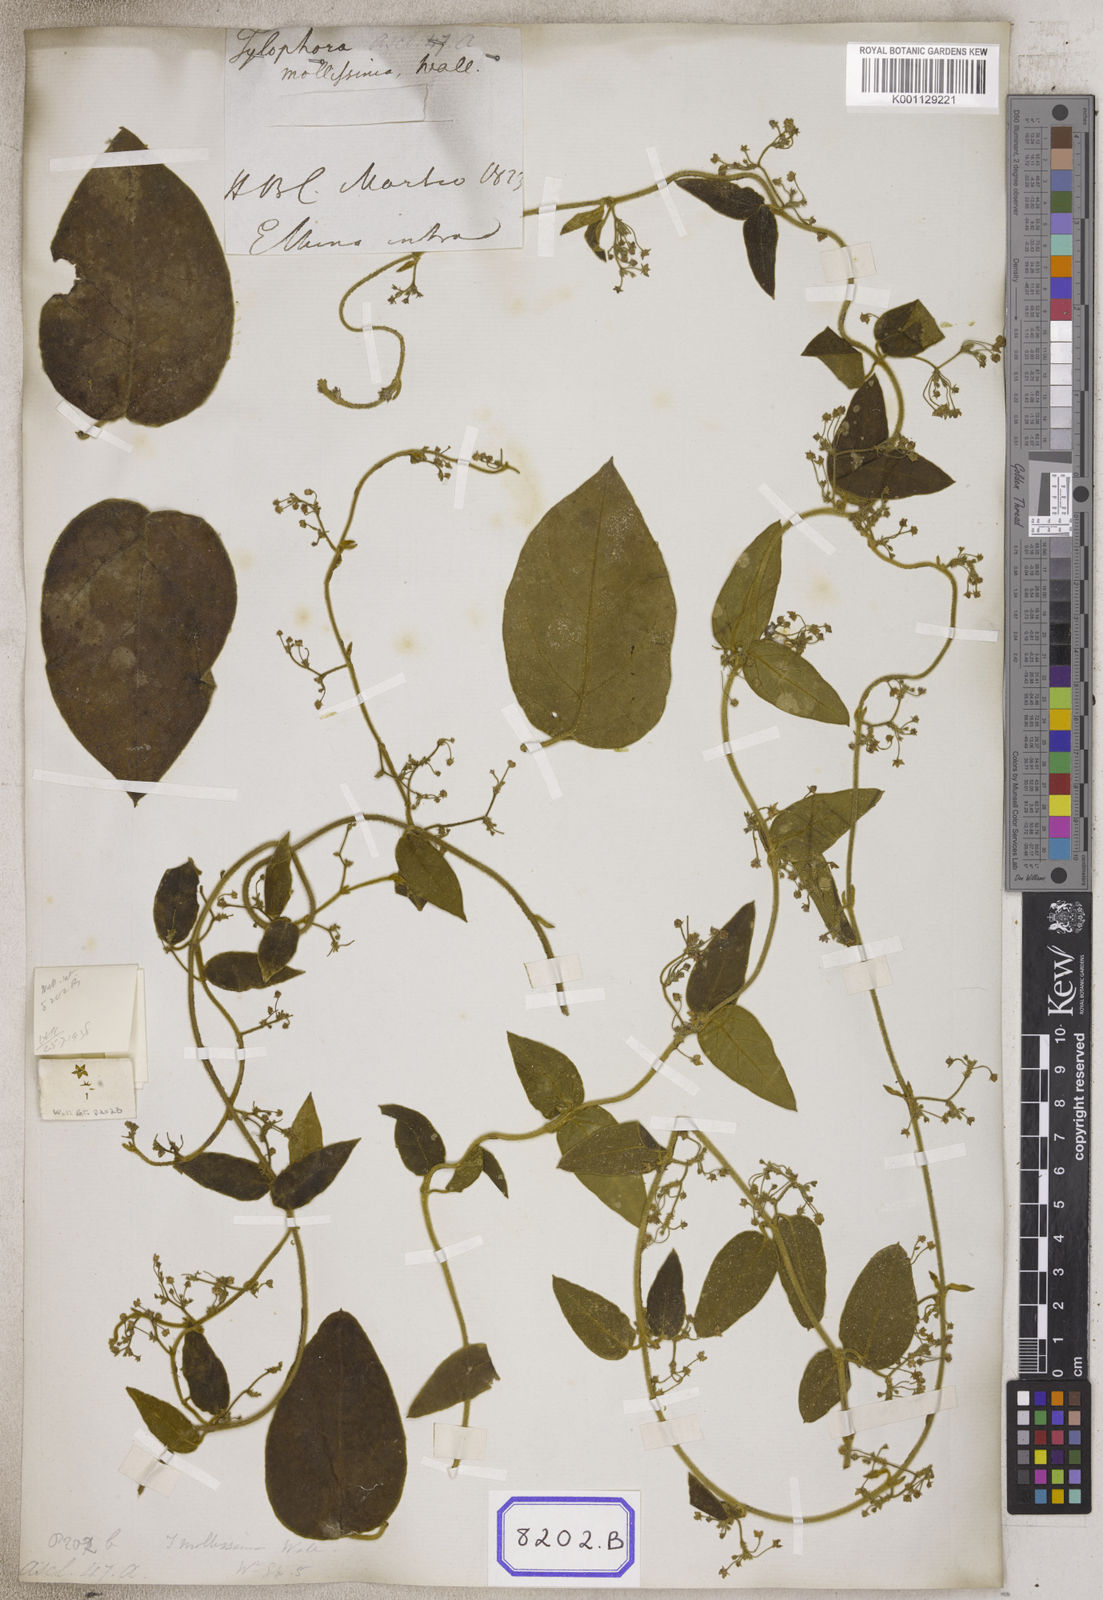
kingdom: Plantae
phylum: Tracheophyta
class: Magnoliopsida
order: Gentianales
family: Apocynaceae
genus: Vincetoxicum
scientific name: Vincetoxicum
